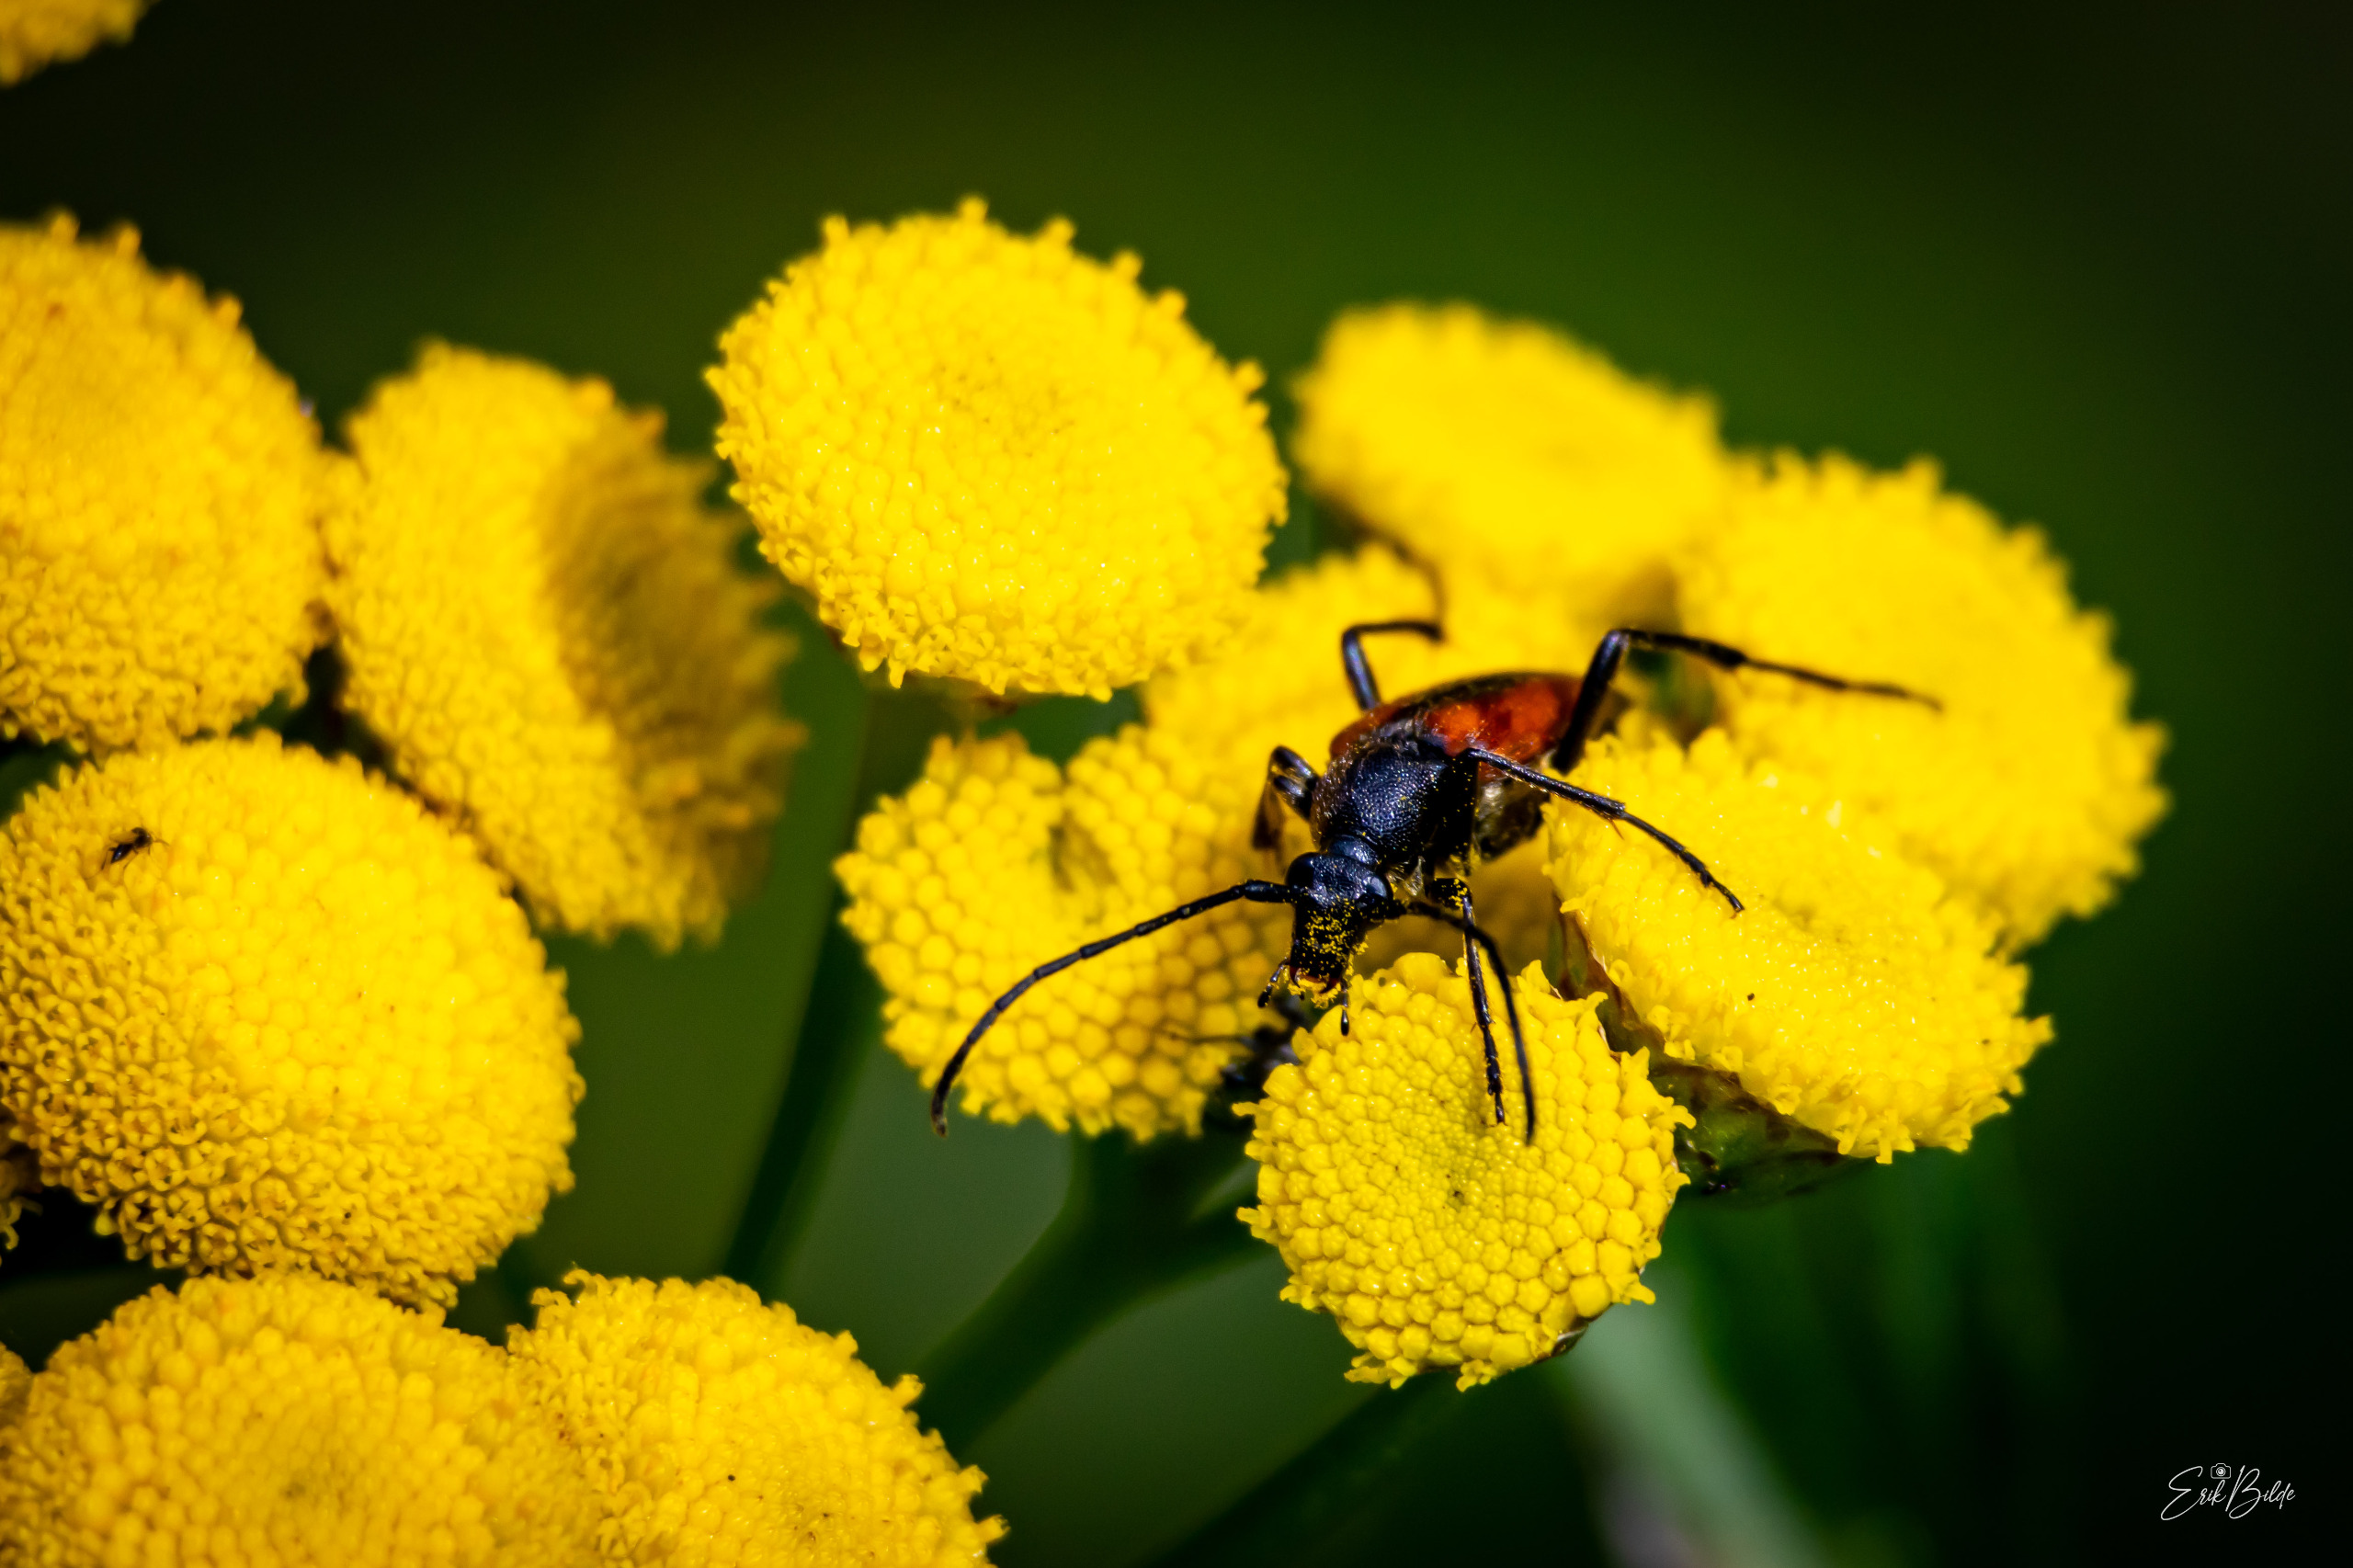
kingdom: Animalia
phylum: Arthropoda
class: Insecta
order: Coleoptera
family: Cerambycidae
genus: Stenurella
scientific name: Stenurella melanura
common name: Sortsømmet blomsterbuk
